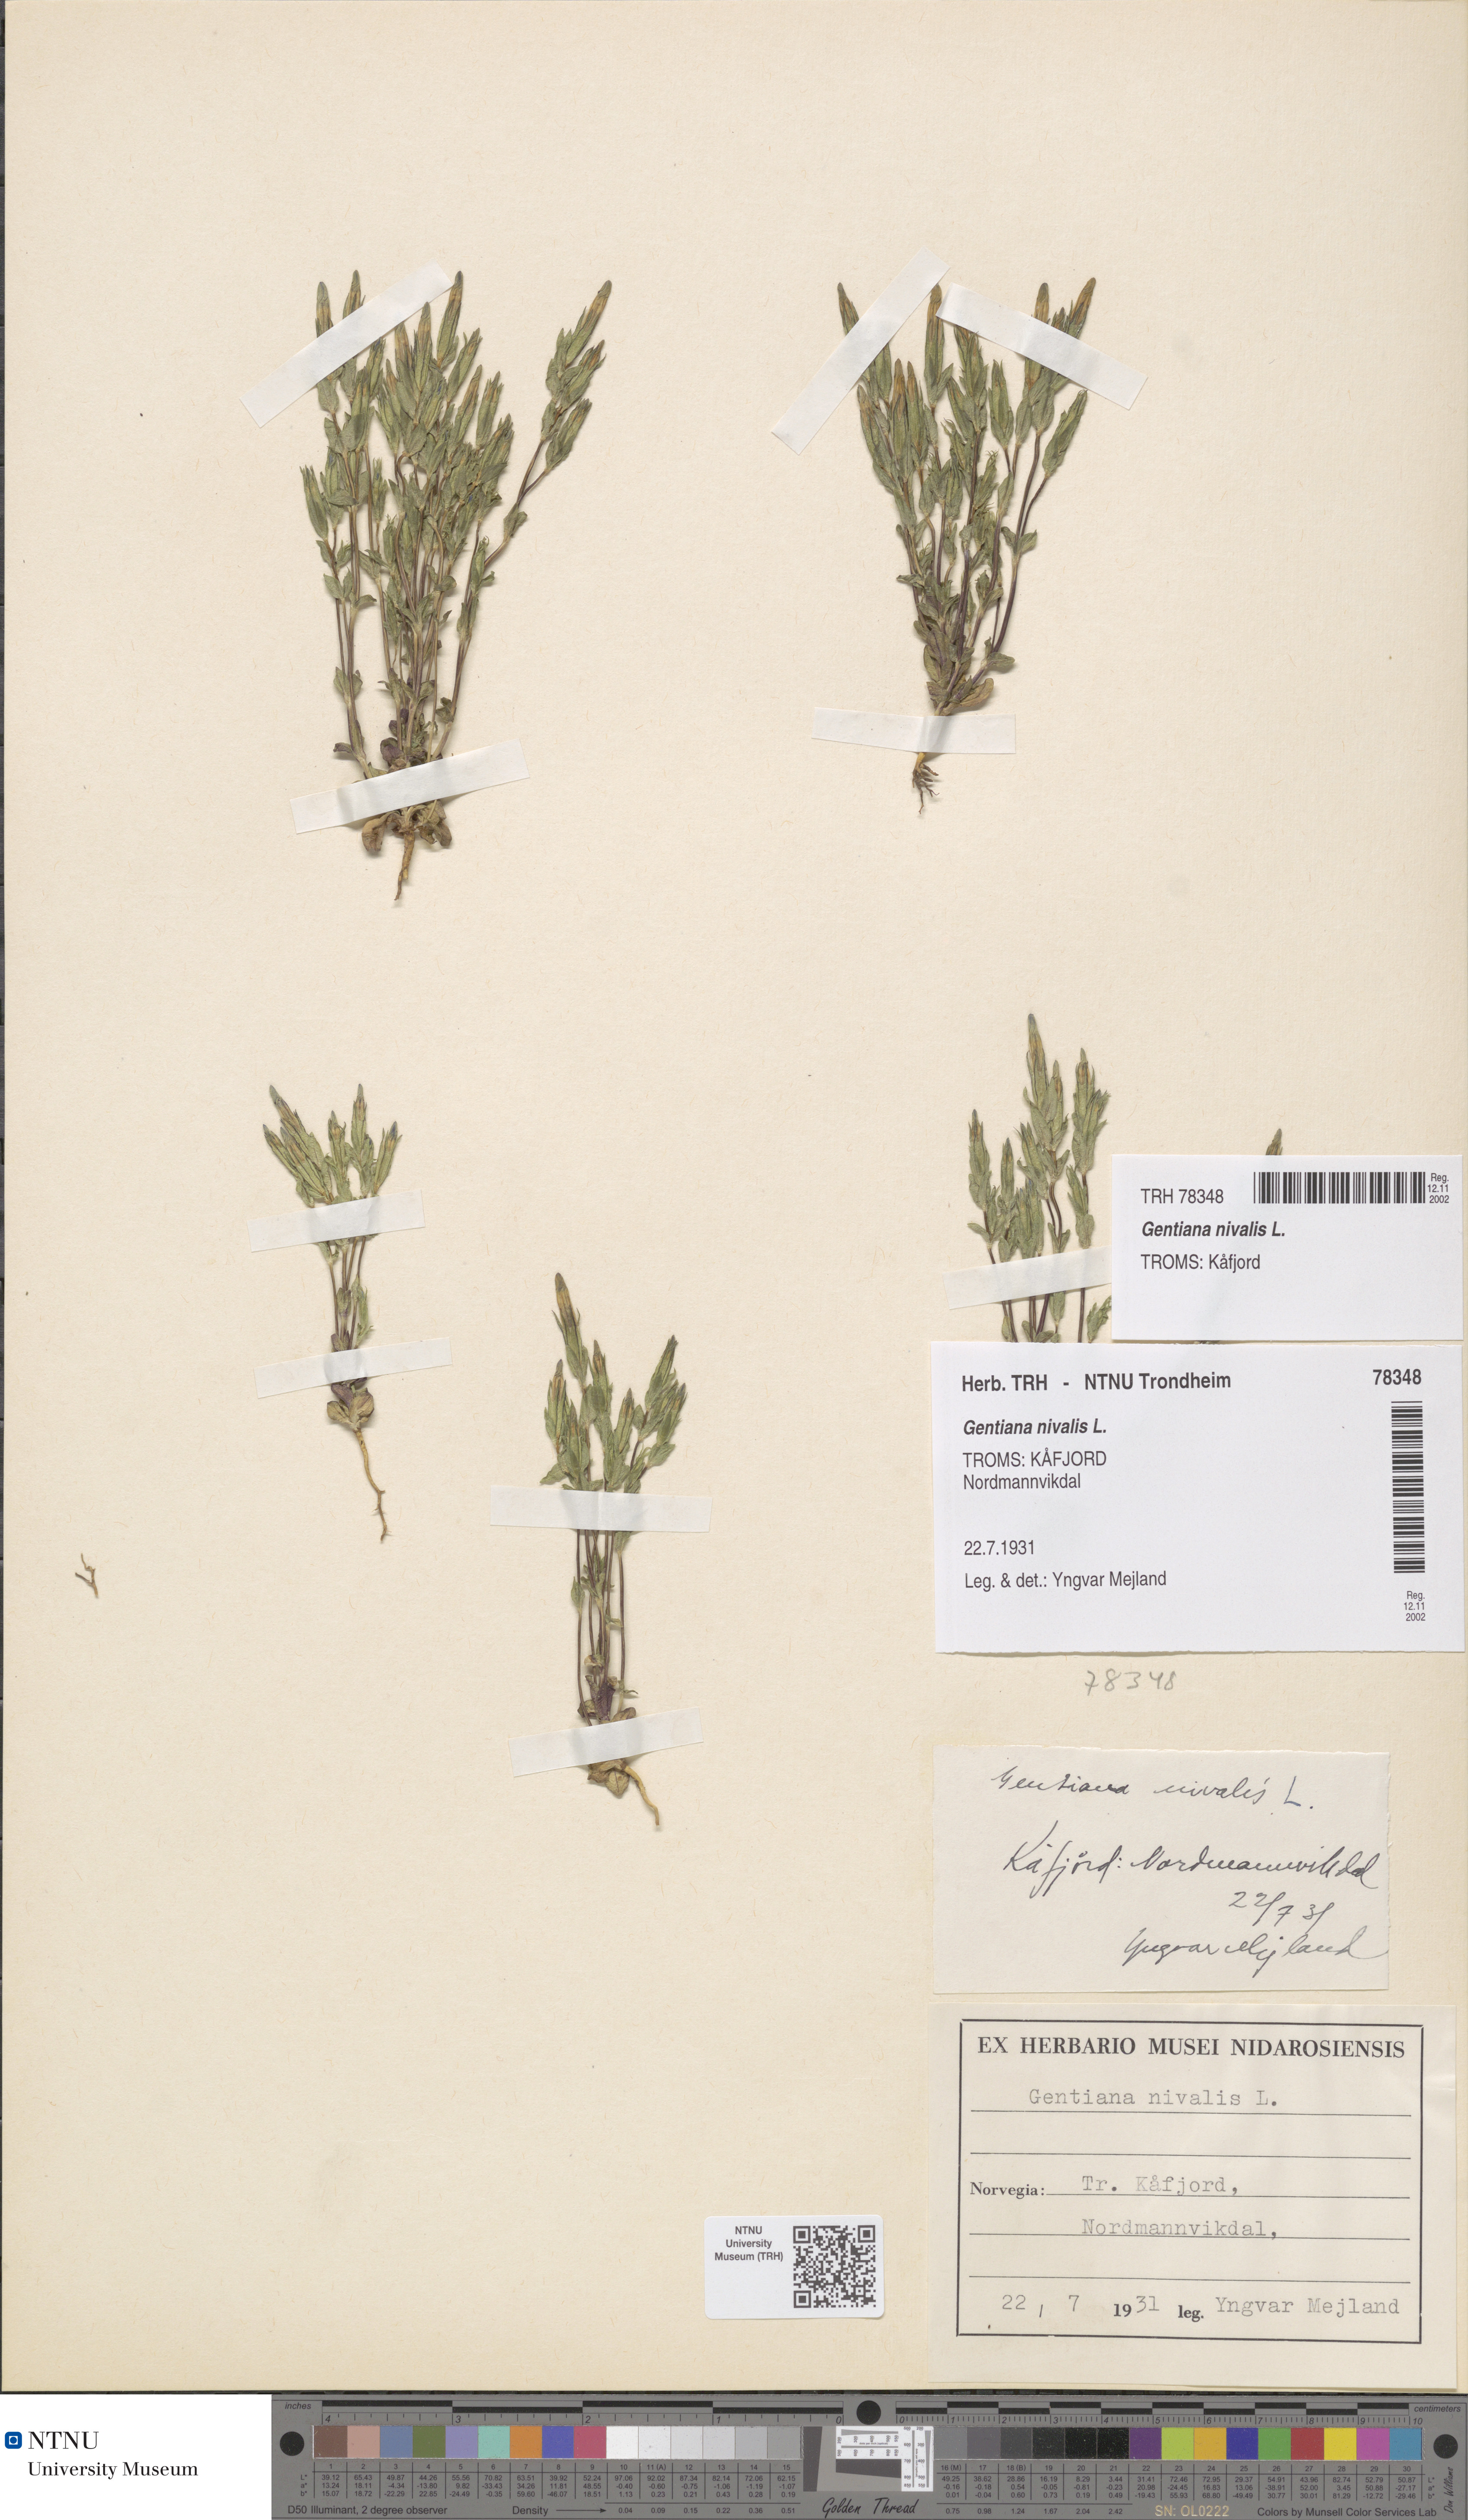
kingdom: Plantae
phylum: Tracheophyta
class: Magnoliopsida
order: Gentianales
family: Gentianaceae
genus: Gentiana
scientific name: Gentiana nivalis
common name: Alpine gentian
